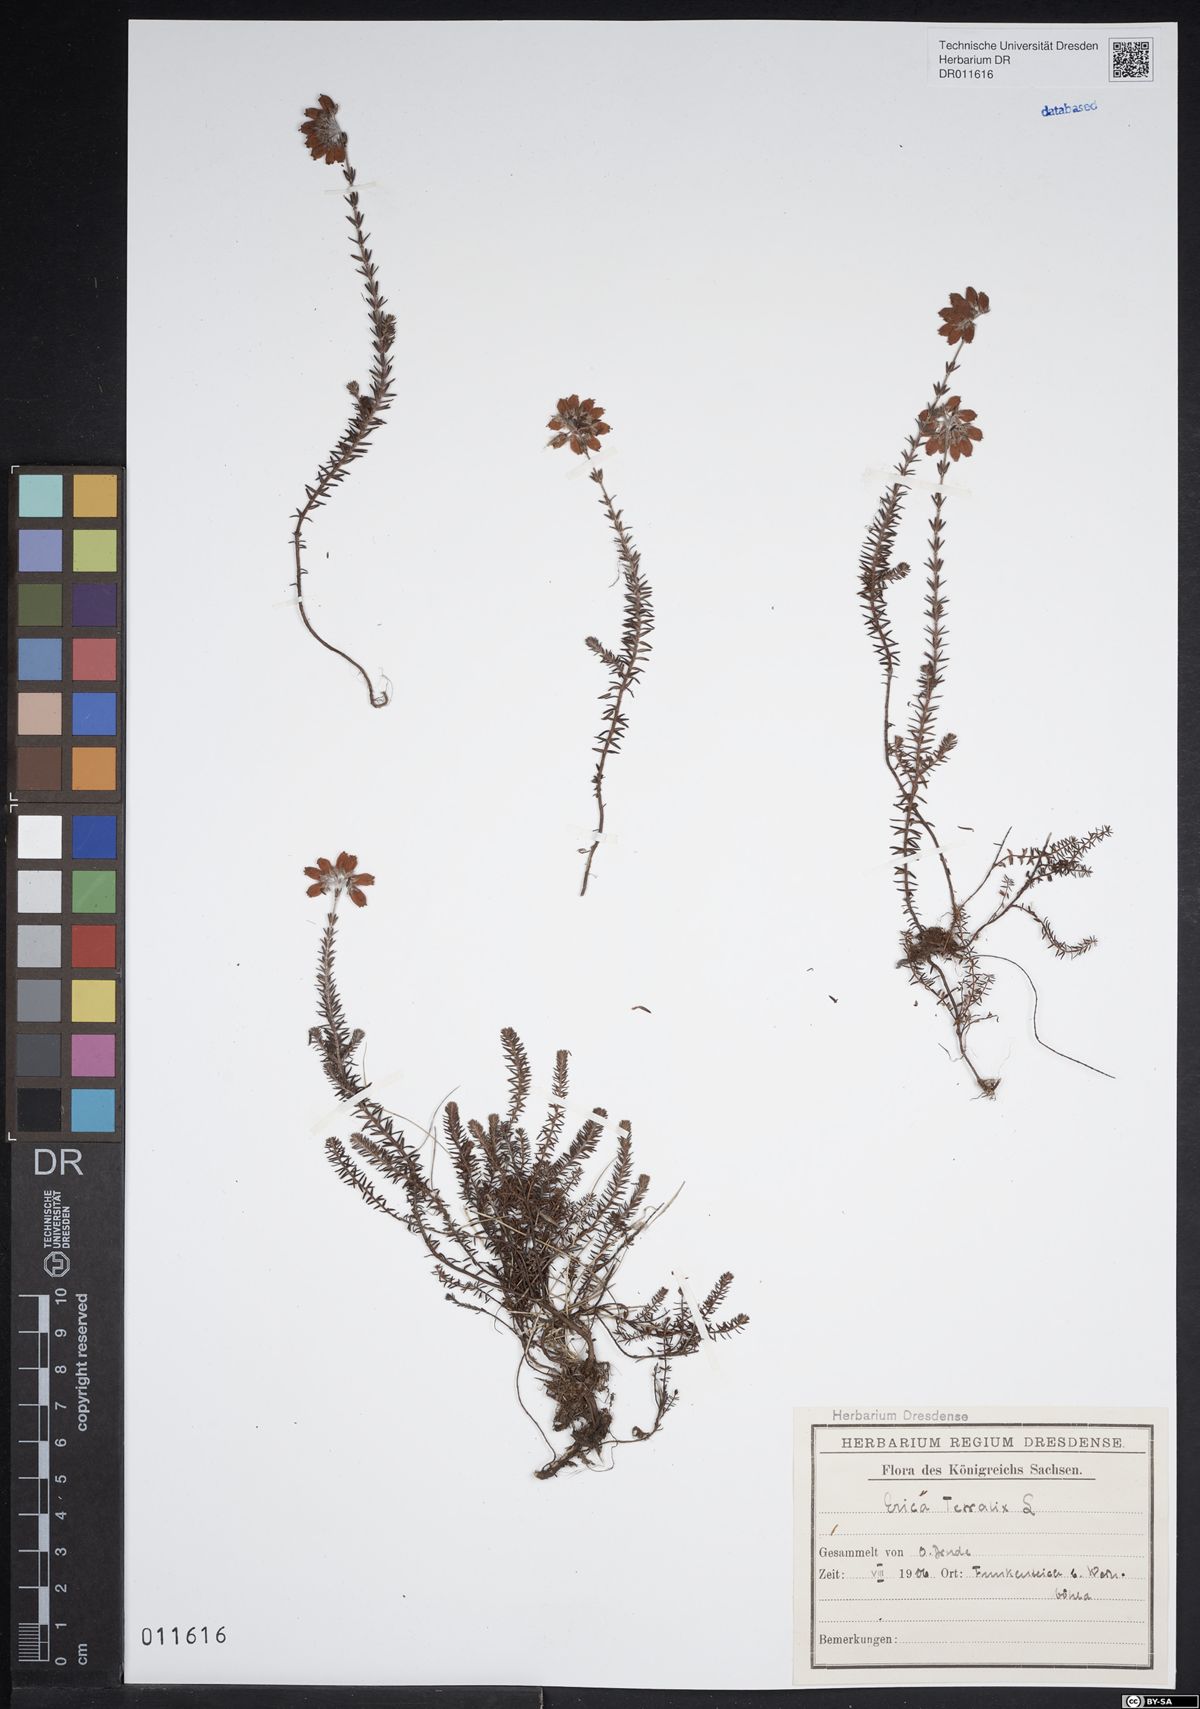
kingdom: Plantae
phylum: Tracheophyta
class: Magnoliopsida
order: Ericales
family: Ericaceae
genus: Erica
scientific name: Erica tetralix
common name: Cross-leaved heath
